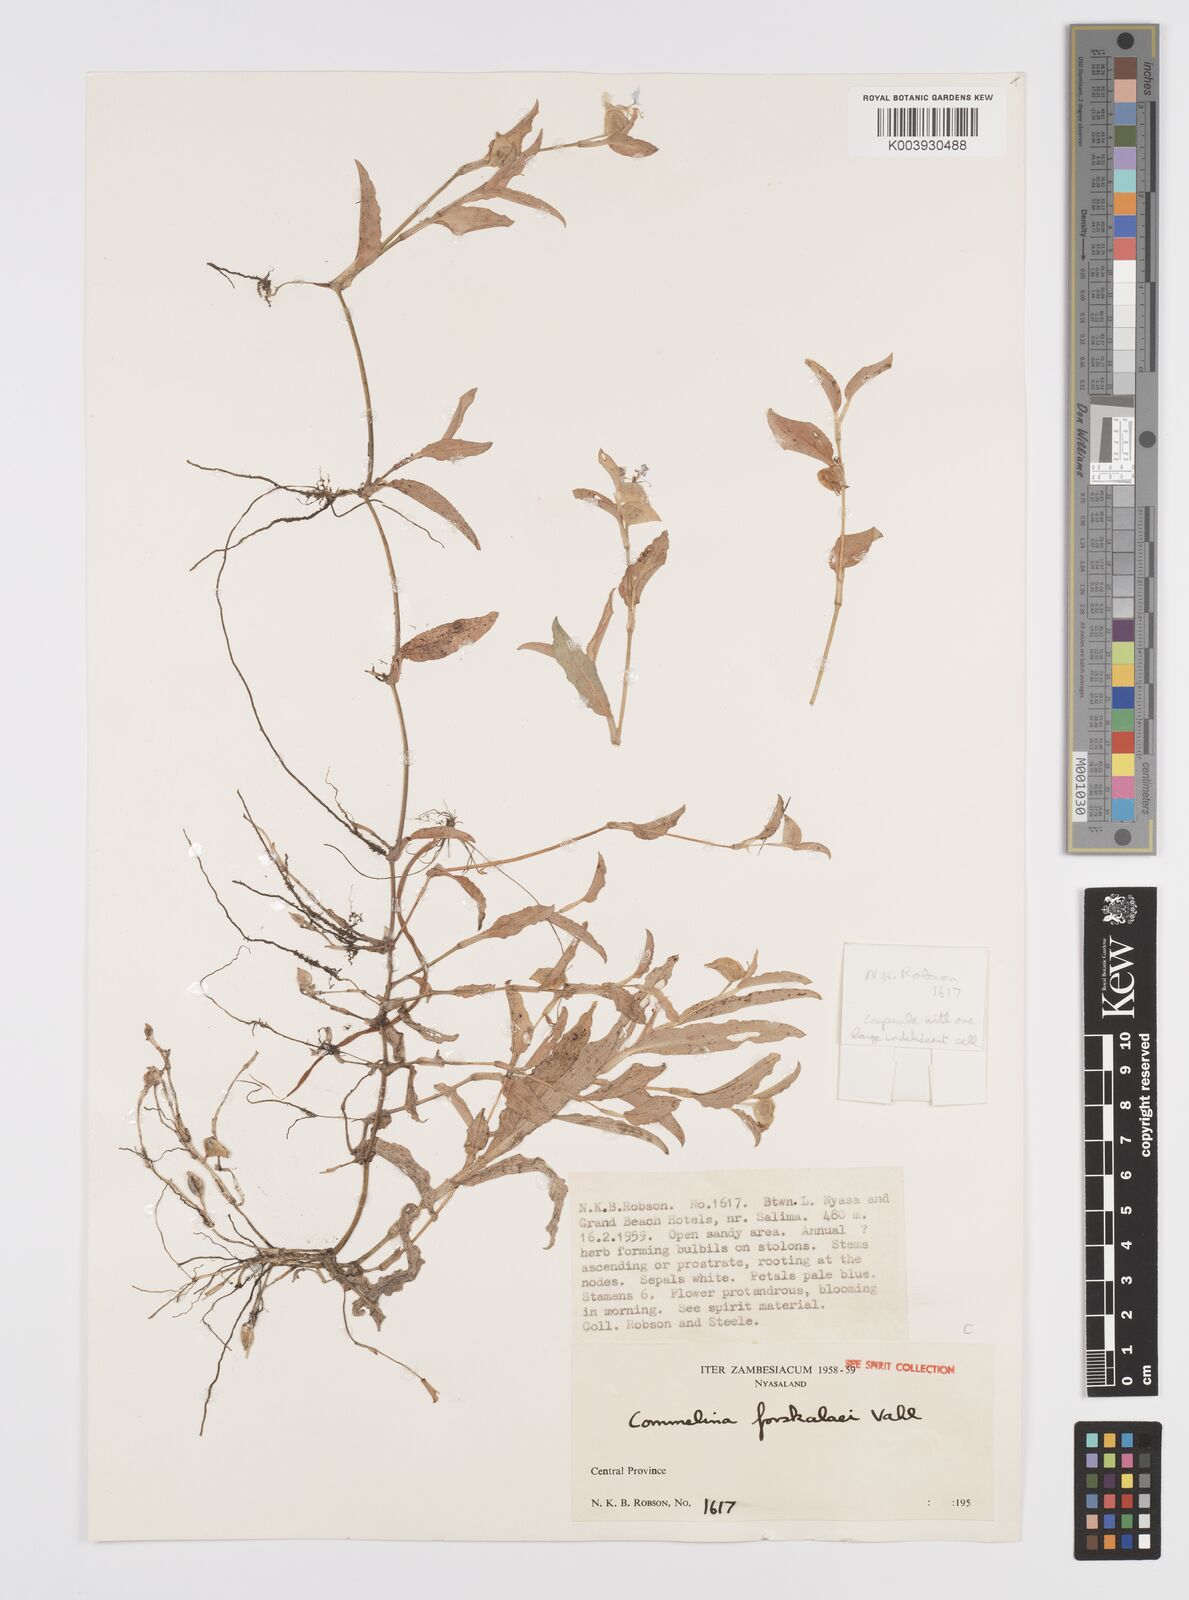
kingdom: Plantae
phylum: Tracheophyta
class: Liliopsida
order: Commelinales
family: Commelinaceae
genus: Commelina
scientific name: Commelina forskaolii
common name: Rat's ear
